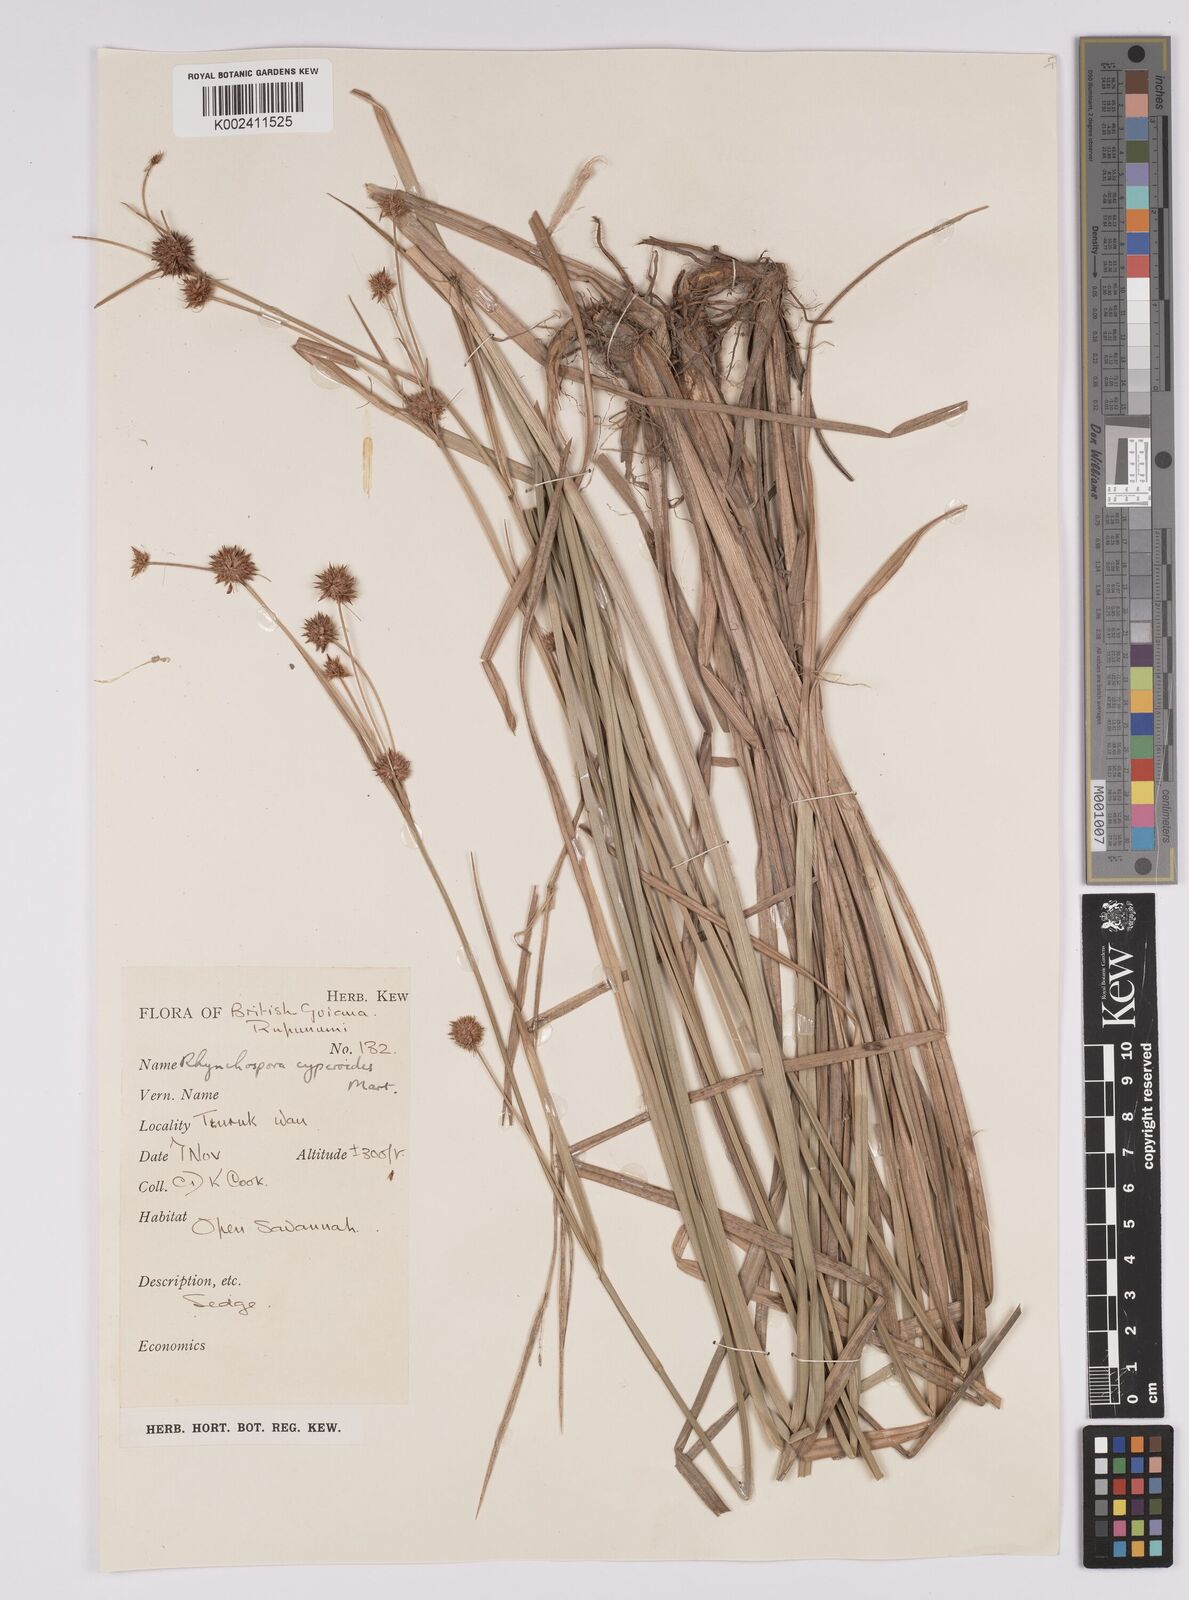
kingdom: Plantae
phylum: Tracheophyta
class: Liliopsida
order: Poales
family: Cyperaceae
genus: Rhynchospora
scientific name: Rhynchospora holoschoenoides
